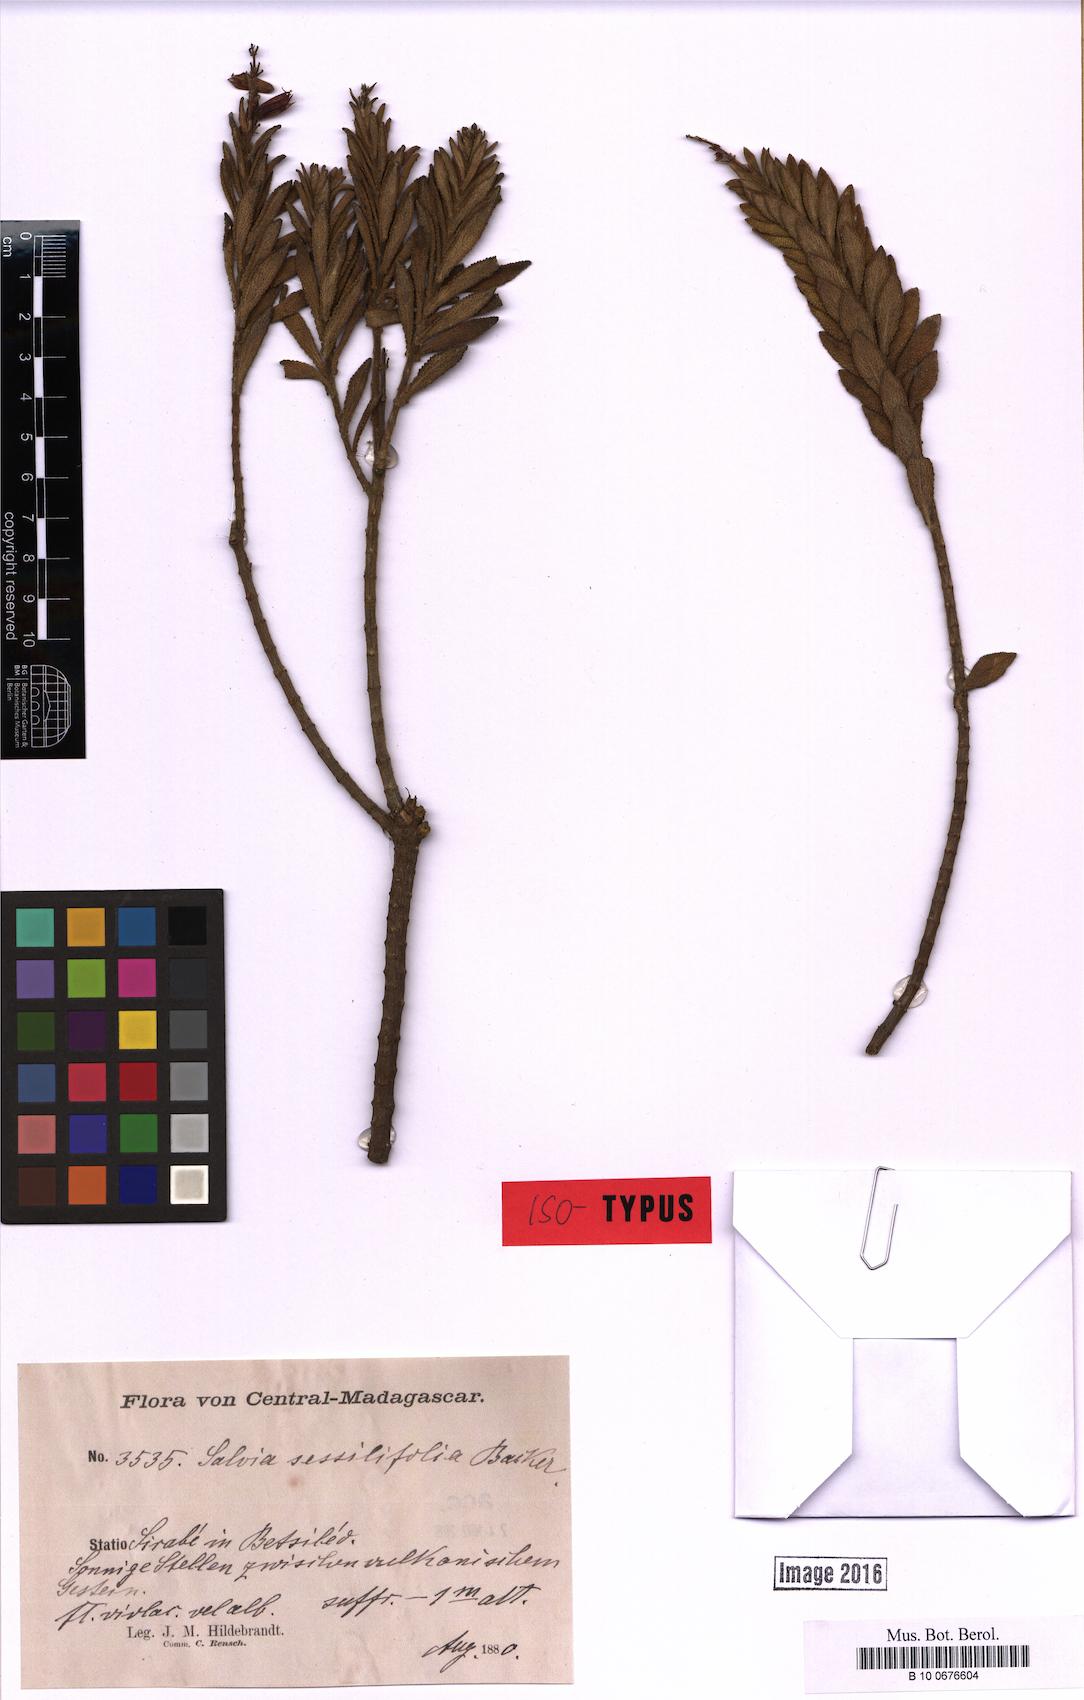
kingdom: Plantae
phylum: Tracheophyta
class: Magnoliopsida
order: Lamiales
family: Lamiaceae
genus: Salvia
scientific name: Salvia sessilifolia
